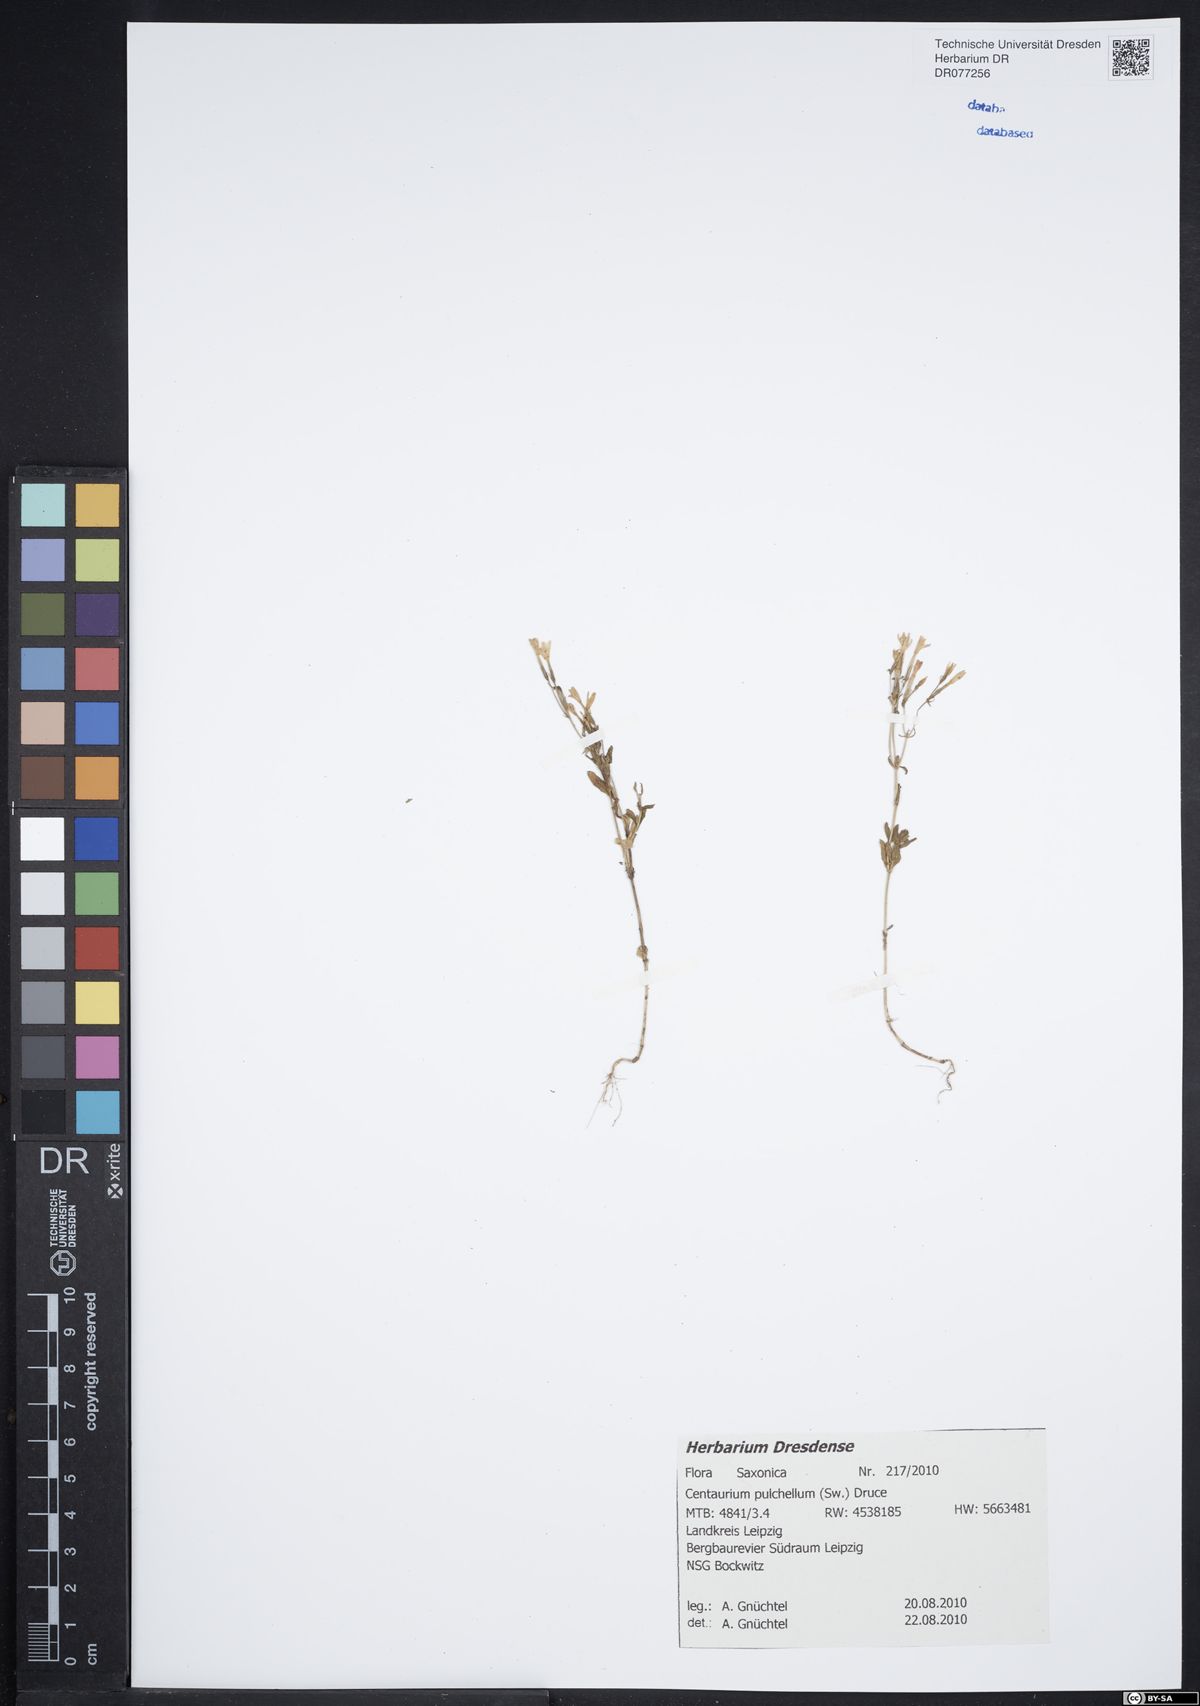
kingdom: Plantae
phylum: Tracheophyta
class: Magnoliopsida
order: Gentianales
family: Gentianaceae
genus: Centaurium
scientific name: Centaurium pulchellum
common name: Lesser centaury
